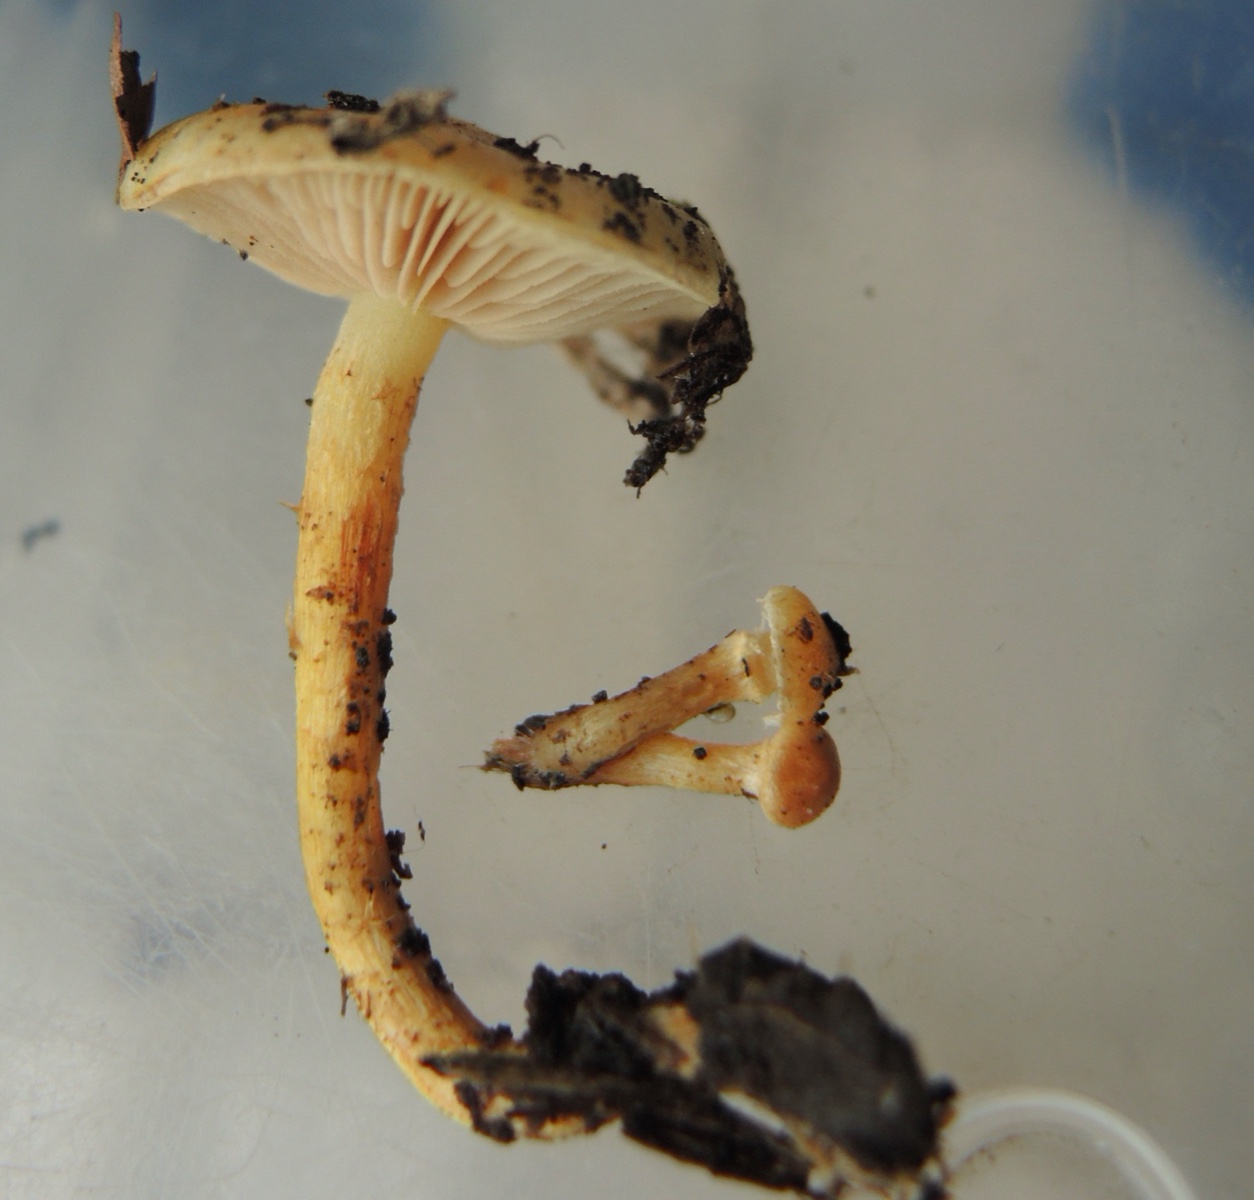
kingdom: Fungi
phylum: Basidiomycota
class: Agaricomycetes
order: Agaricales
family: Strophariaceae
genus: Pholiota
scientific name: Pholiota conissans
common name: pile-skælhat
